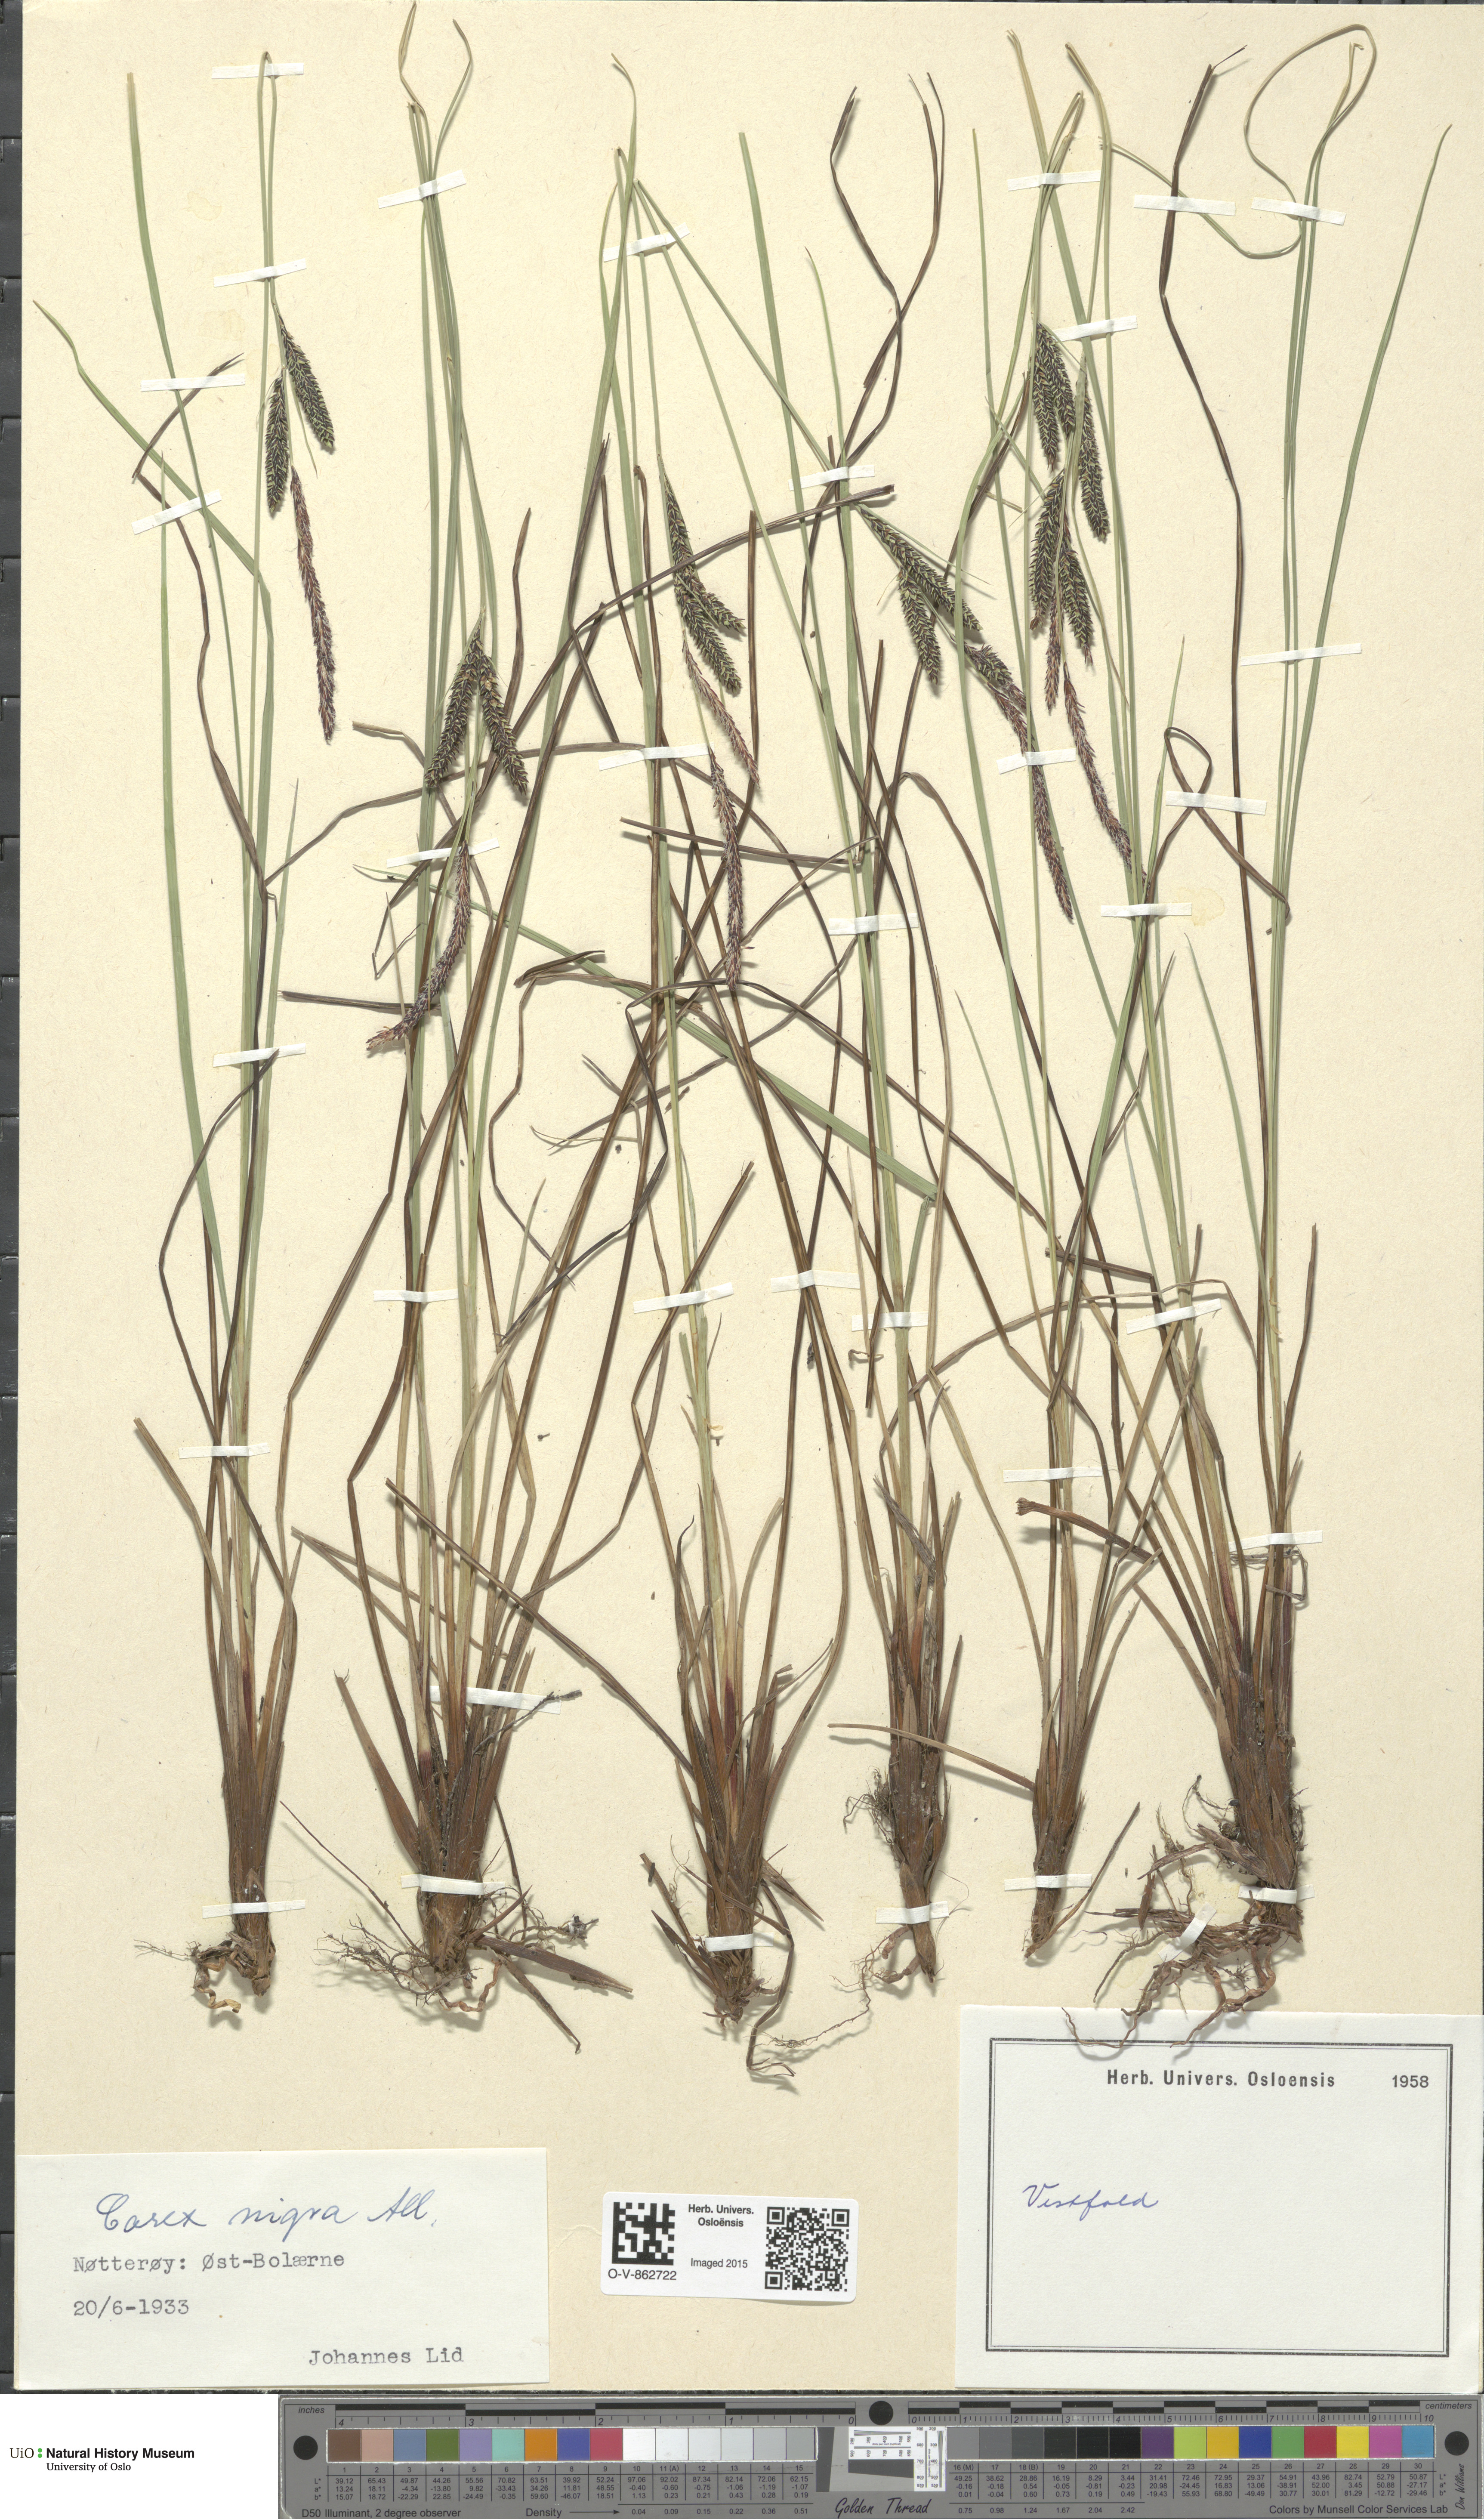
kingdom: Plantae
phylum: Tracheophyta
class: Liliopsida
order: Poales
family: Cyperaceae
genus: Carex
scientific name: Carex nigra
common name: Common sedge
